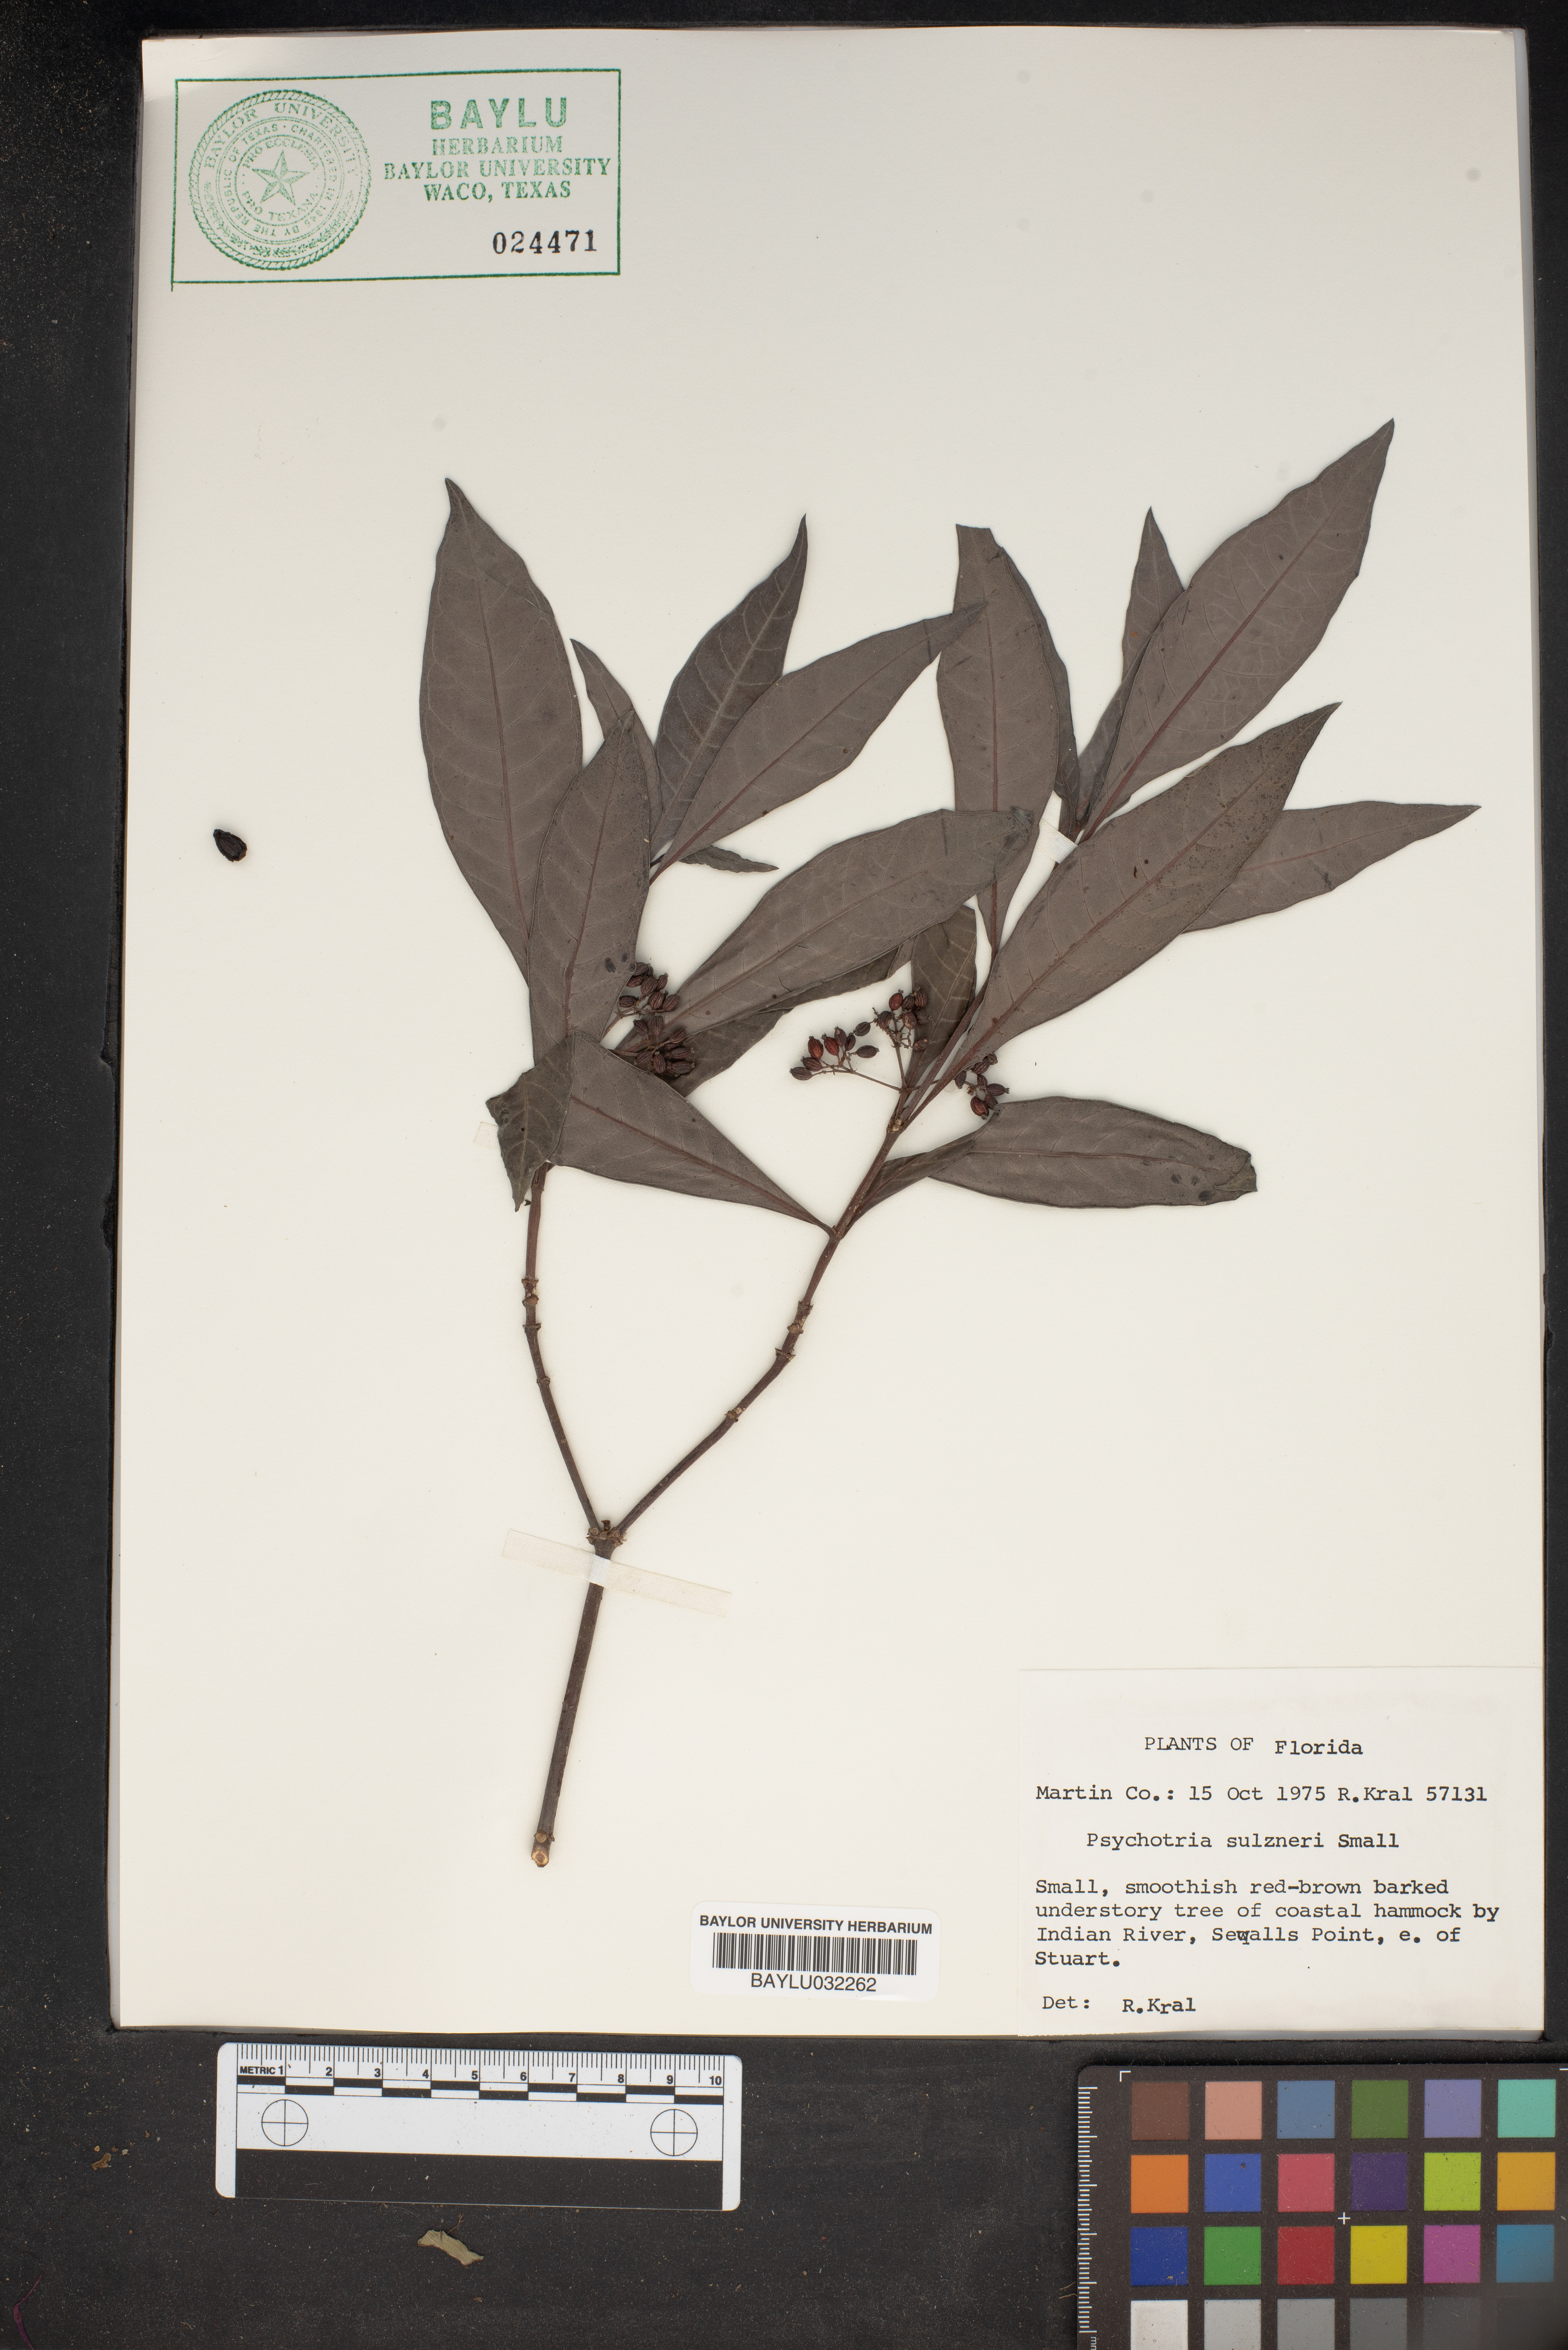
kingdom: Plantae
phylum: Tracheophyta
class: Magnoliopsida
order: Gentianales
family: Rubiaceae
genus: Psychotria
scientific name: Psychotria tenuifolia
